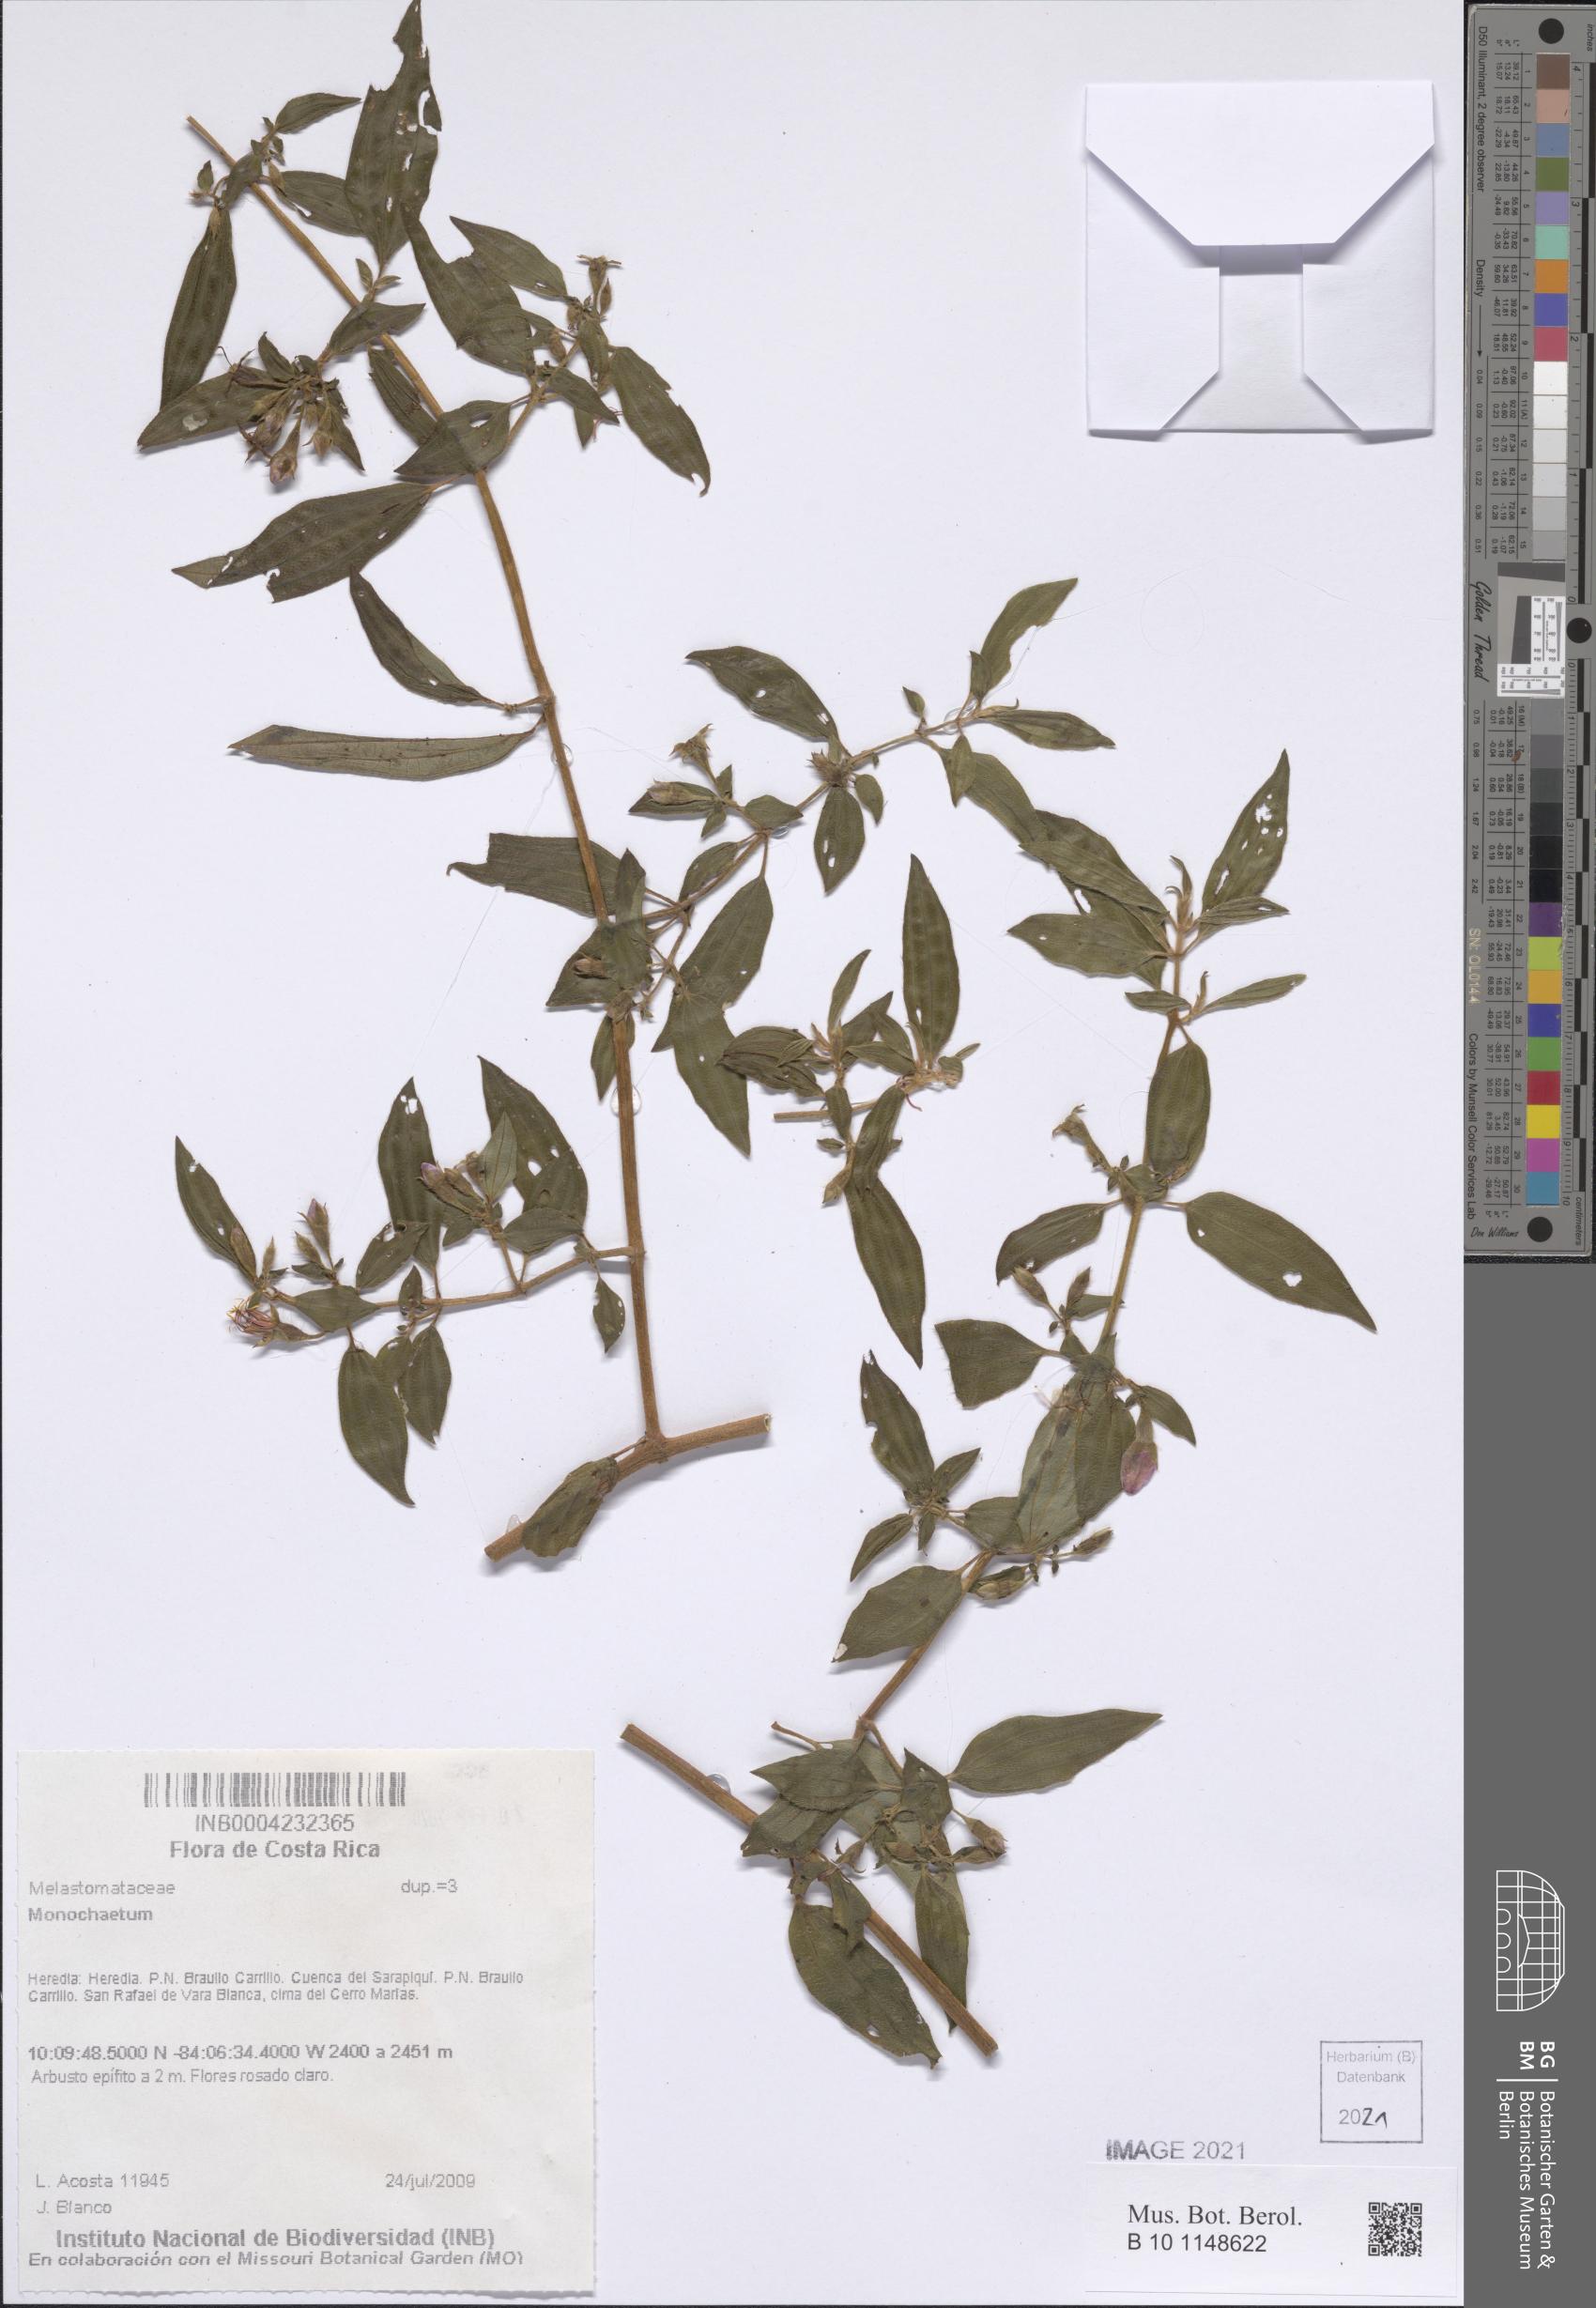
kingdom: Plantae
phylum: Tracheophyta
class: Magnoliopsida
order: Myrtales
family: Melastomataceae
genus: Monochaetum
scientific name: Monochaetum
